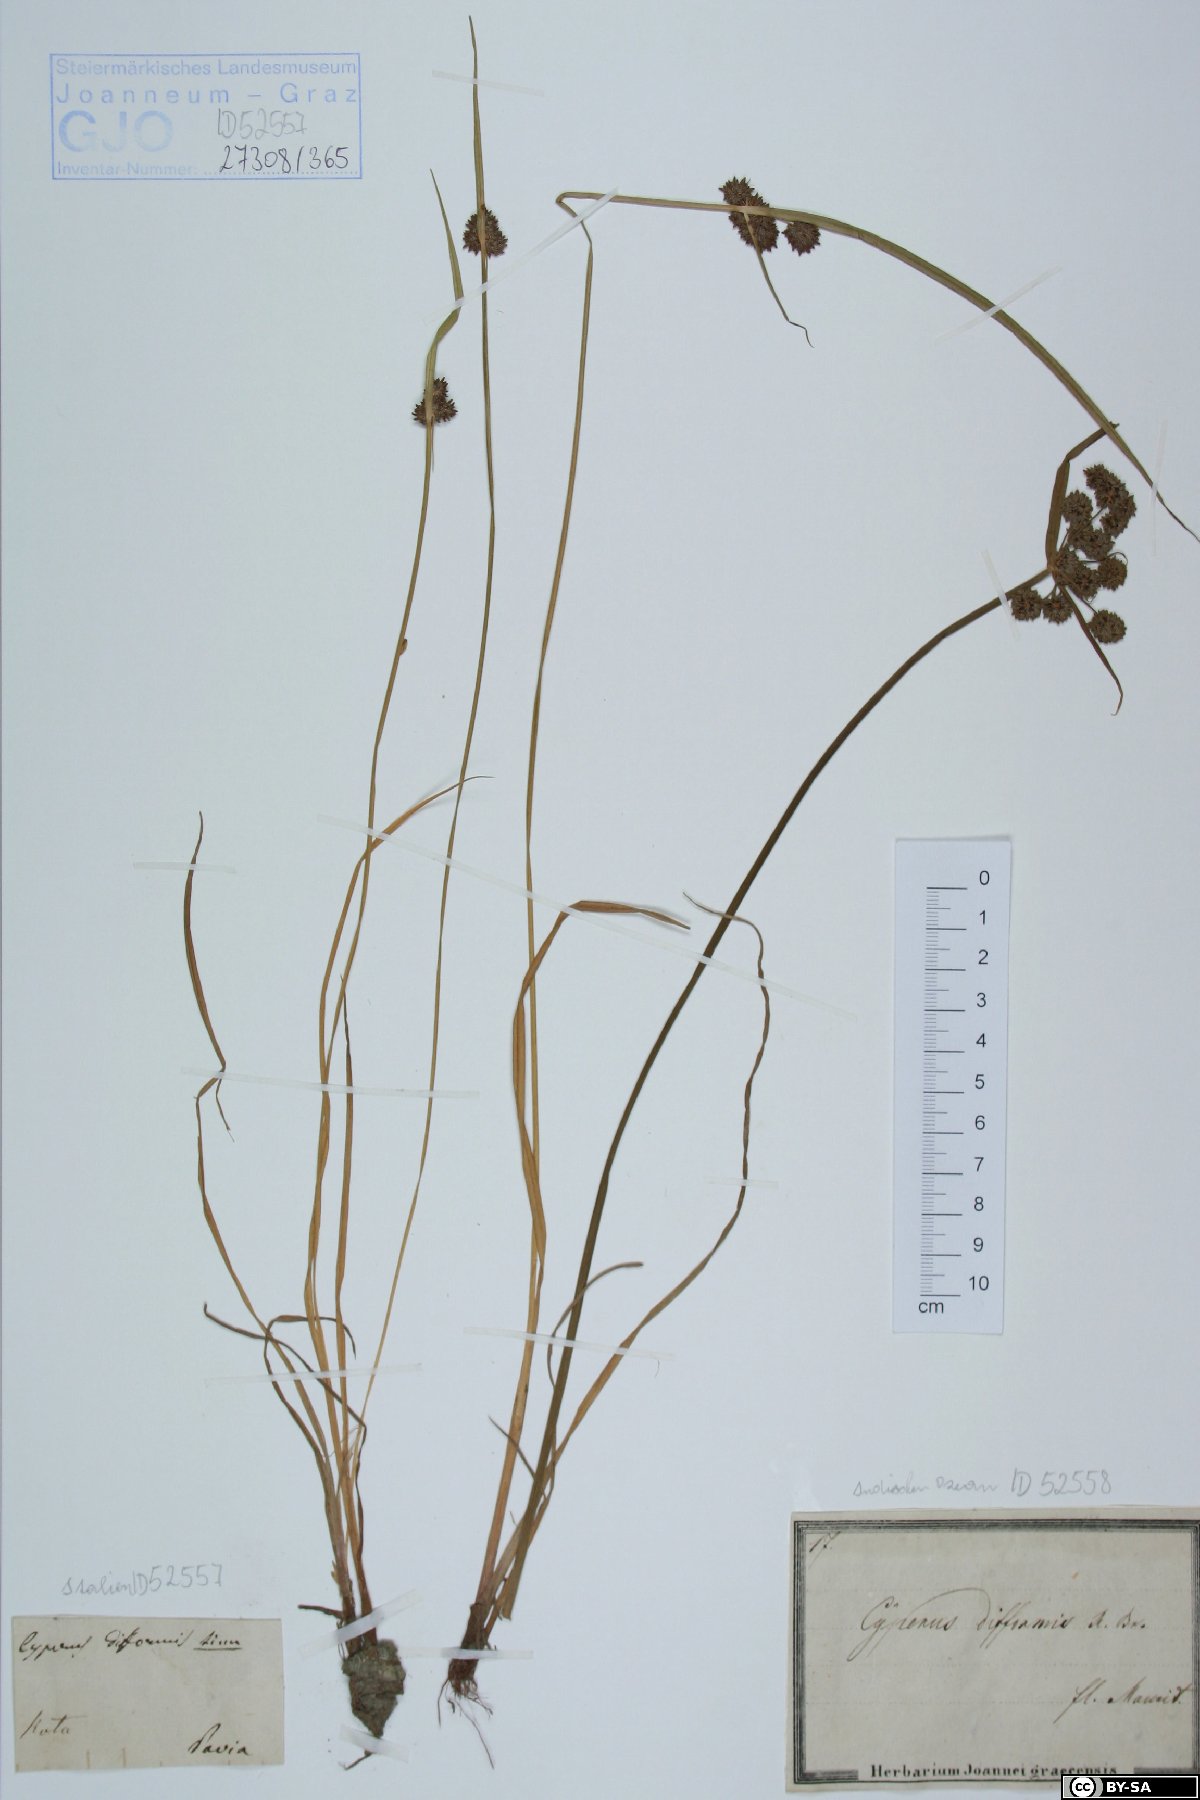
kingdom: Plantae
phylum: Tracheophyta
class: Liliopsida
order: Poales
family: Cyperaceae
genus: Cyperus
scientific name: Cyperus difformis
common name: Variable flatsedge
